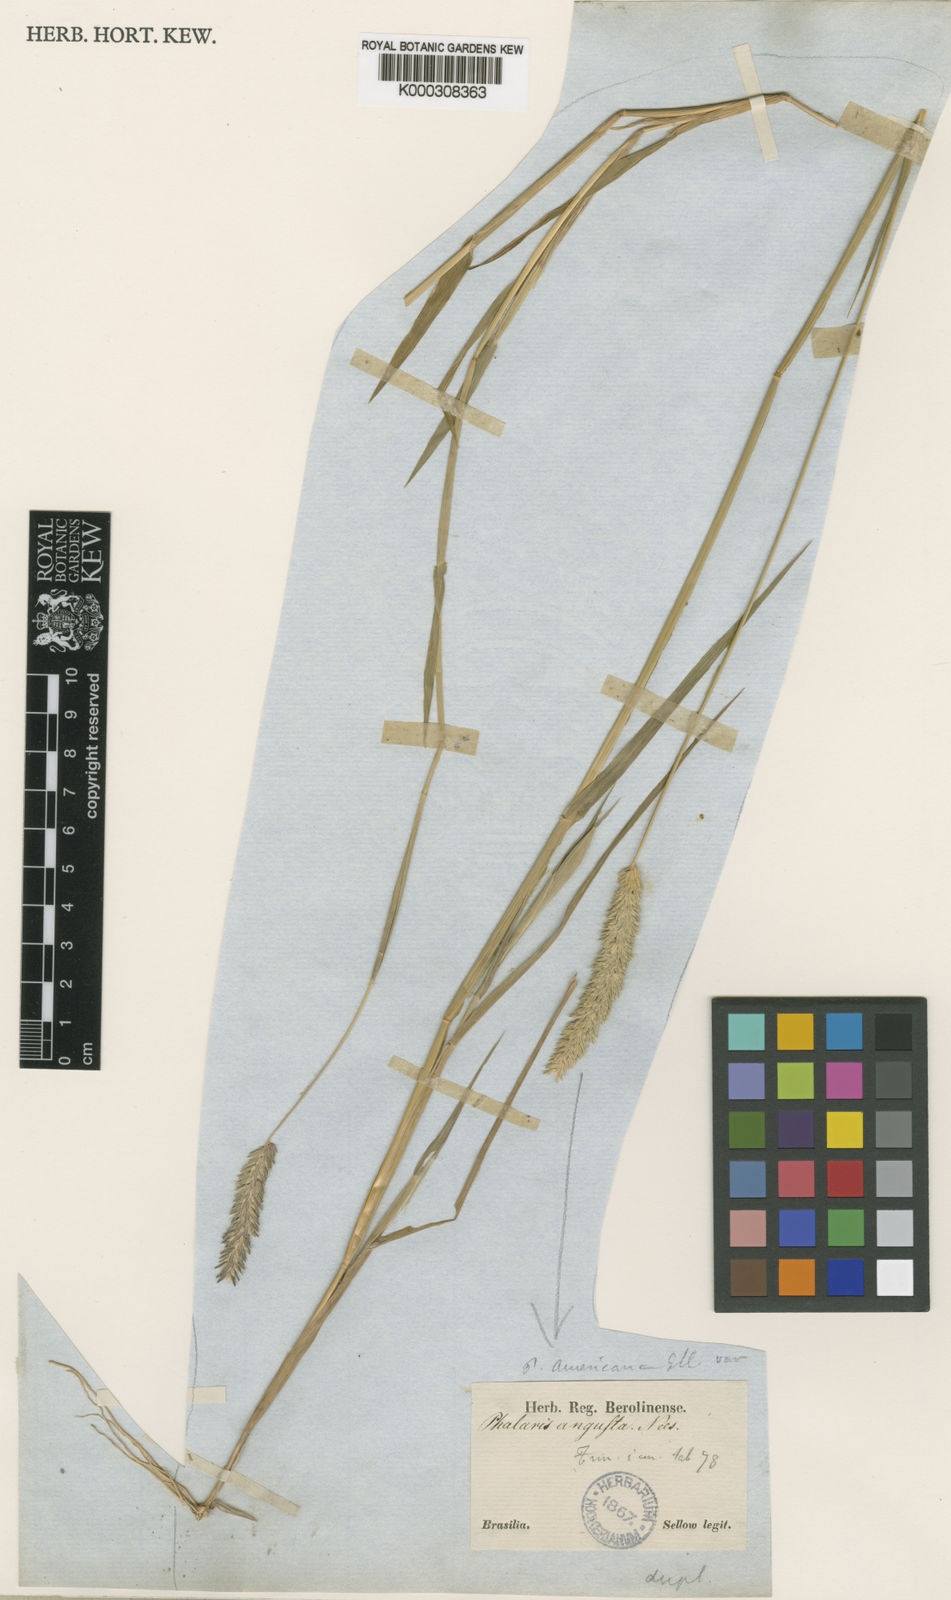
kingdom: Plantae
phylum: Tracheophyta
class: Liliopsida
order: Poales
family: Poaceae
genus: Phalaris
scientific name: Phalaris
